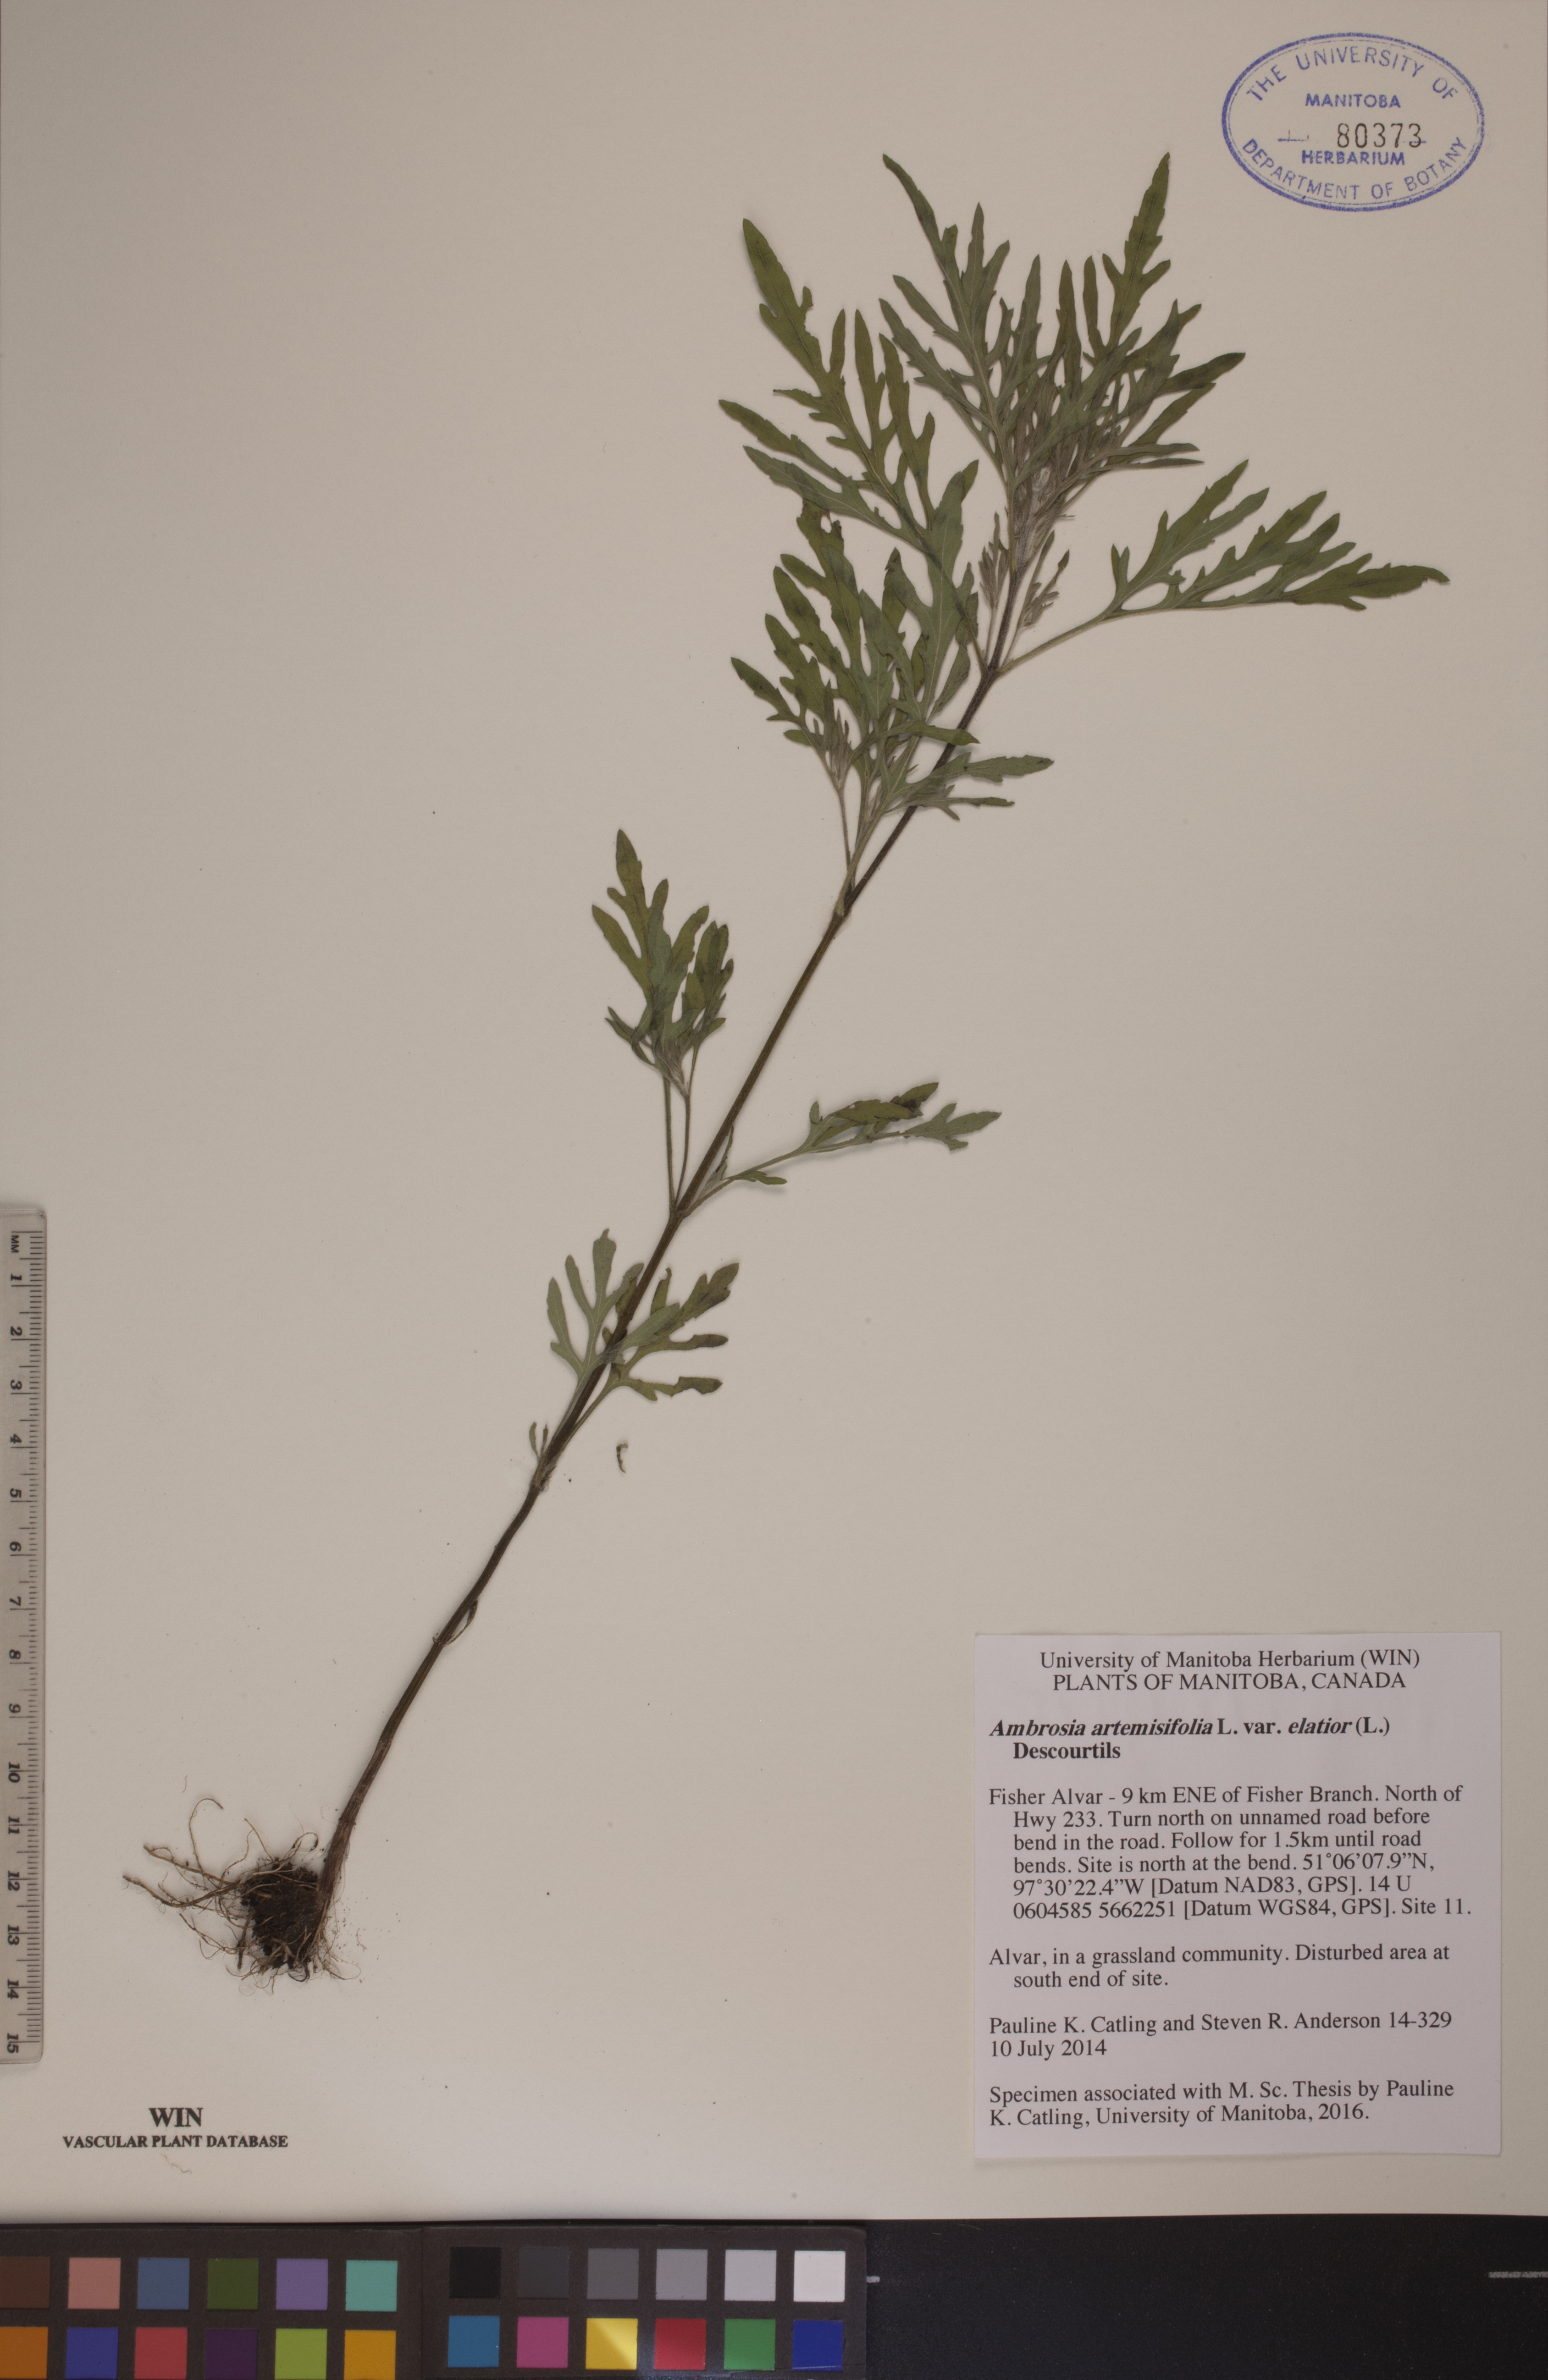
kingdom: Plantae
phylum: Tracheophyta
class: Magnoliopsida
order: Asterales
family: Asteraceae
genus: Ambrosia
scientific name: Ambrosia artemisiifolia
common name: Annual ragweed
